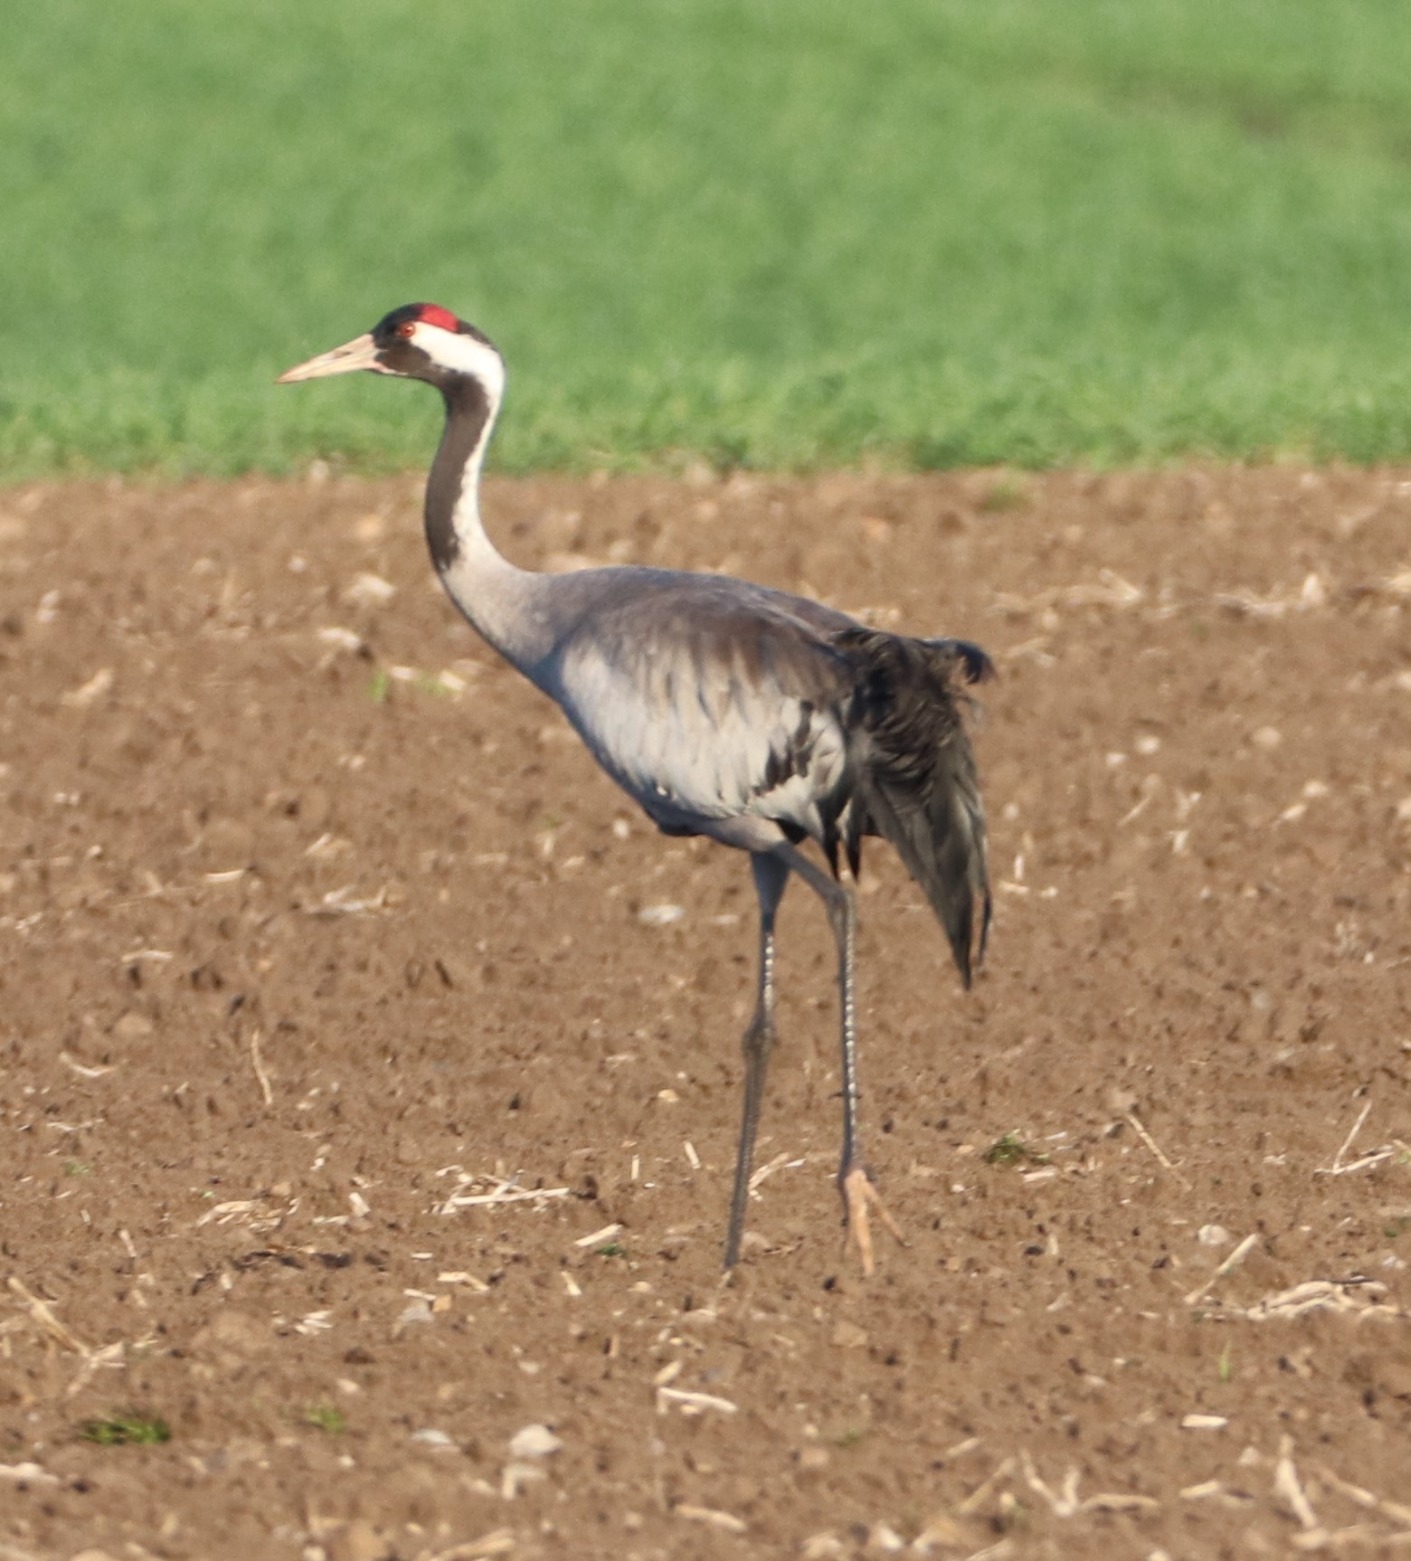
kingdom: Animalia
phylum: Chordata
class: Aves
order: Gruiformes
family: Gruidae
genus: Grus
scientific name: Grus grus
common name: Trane
